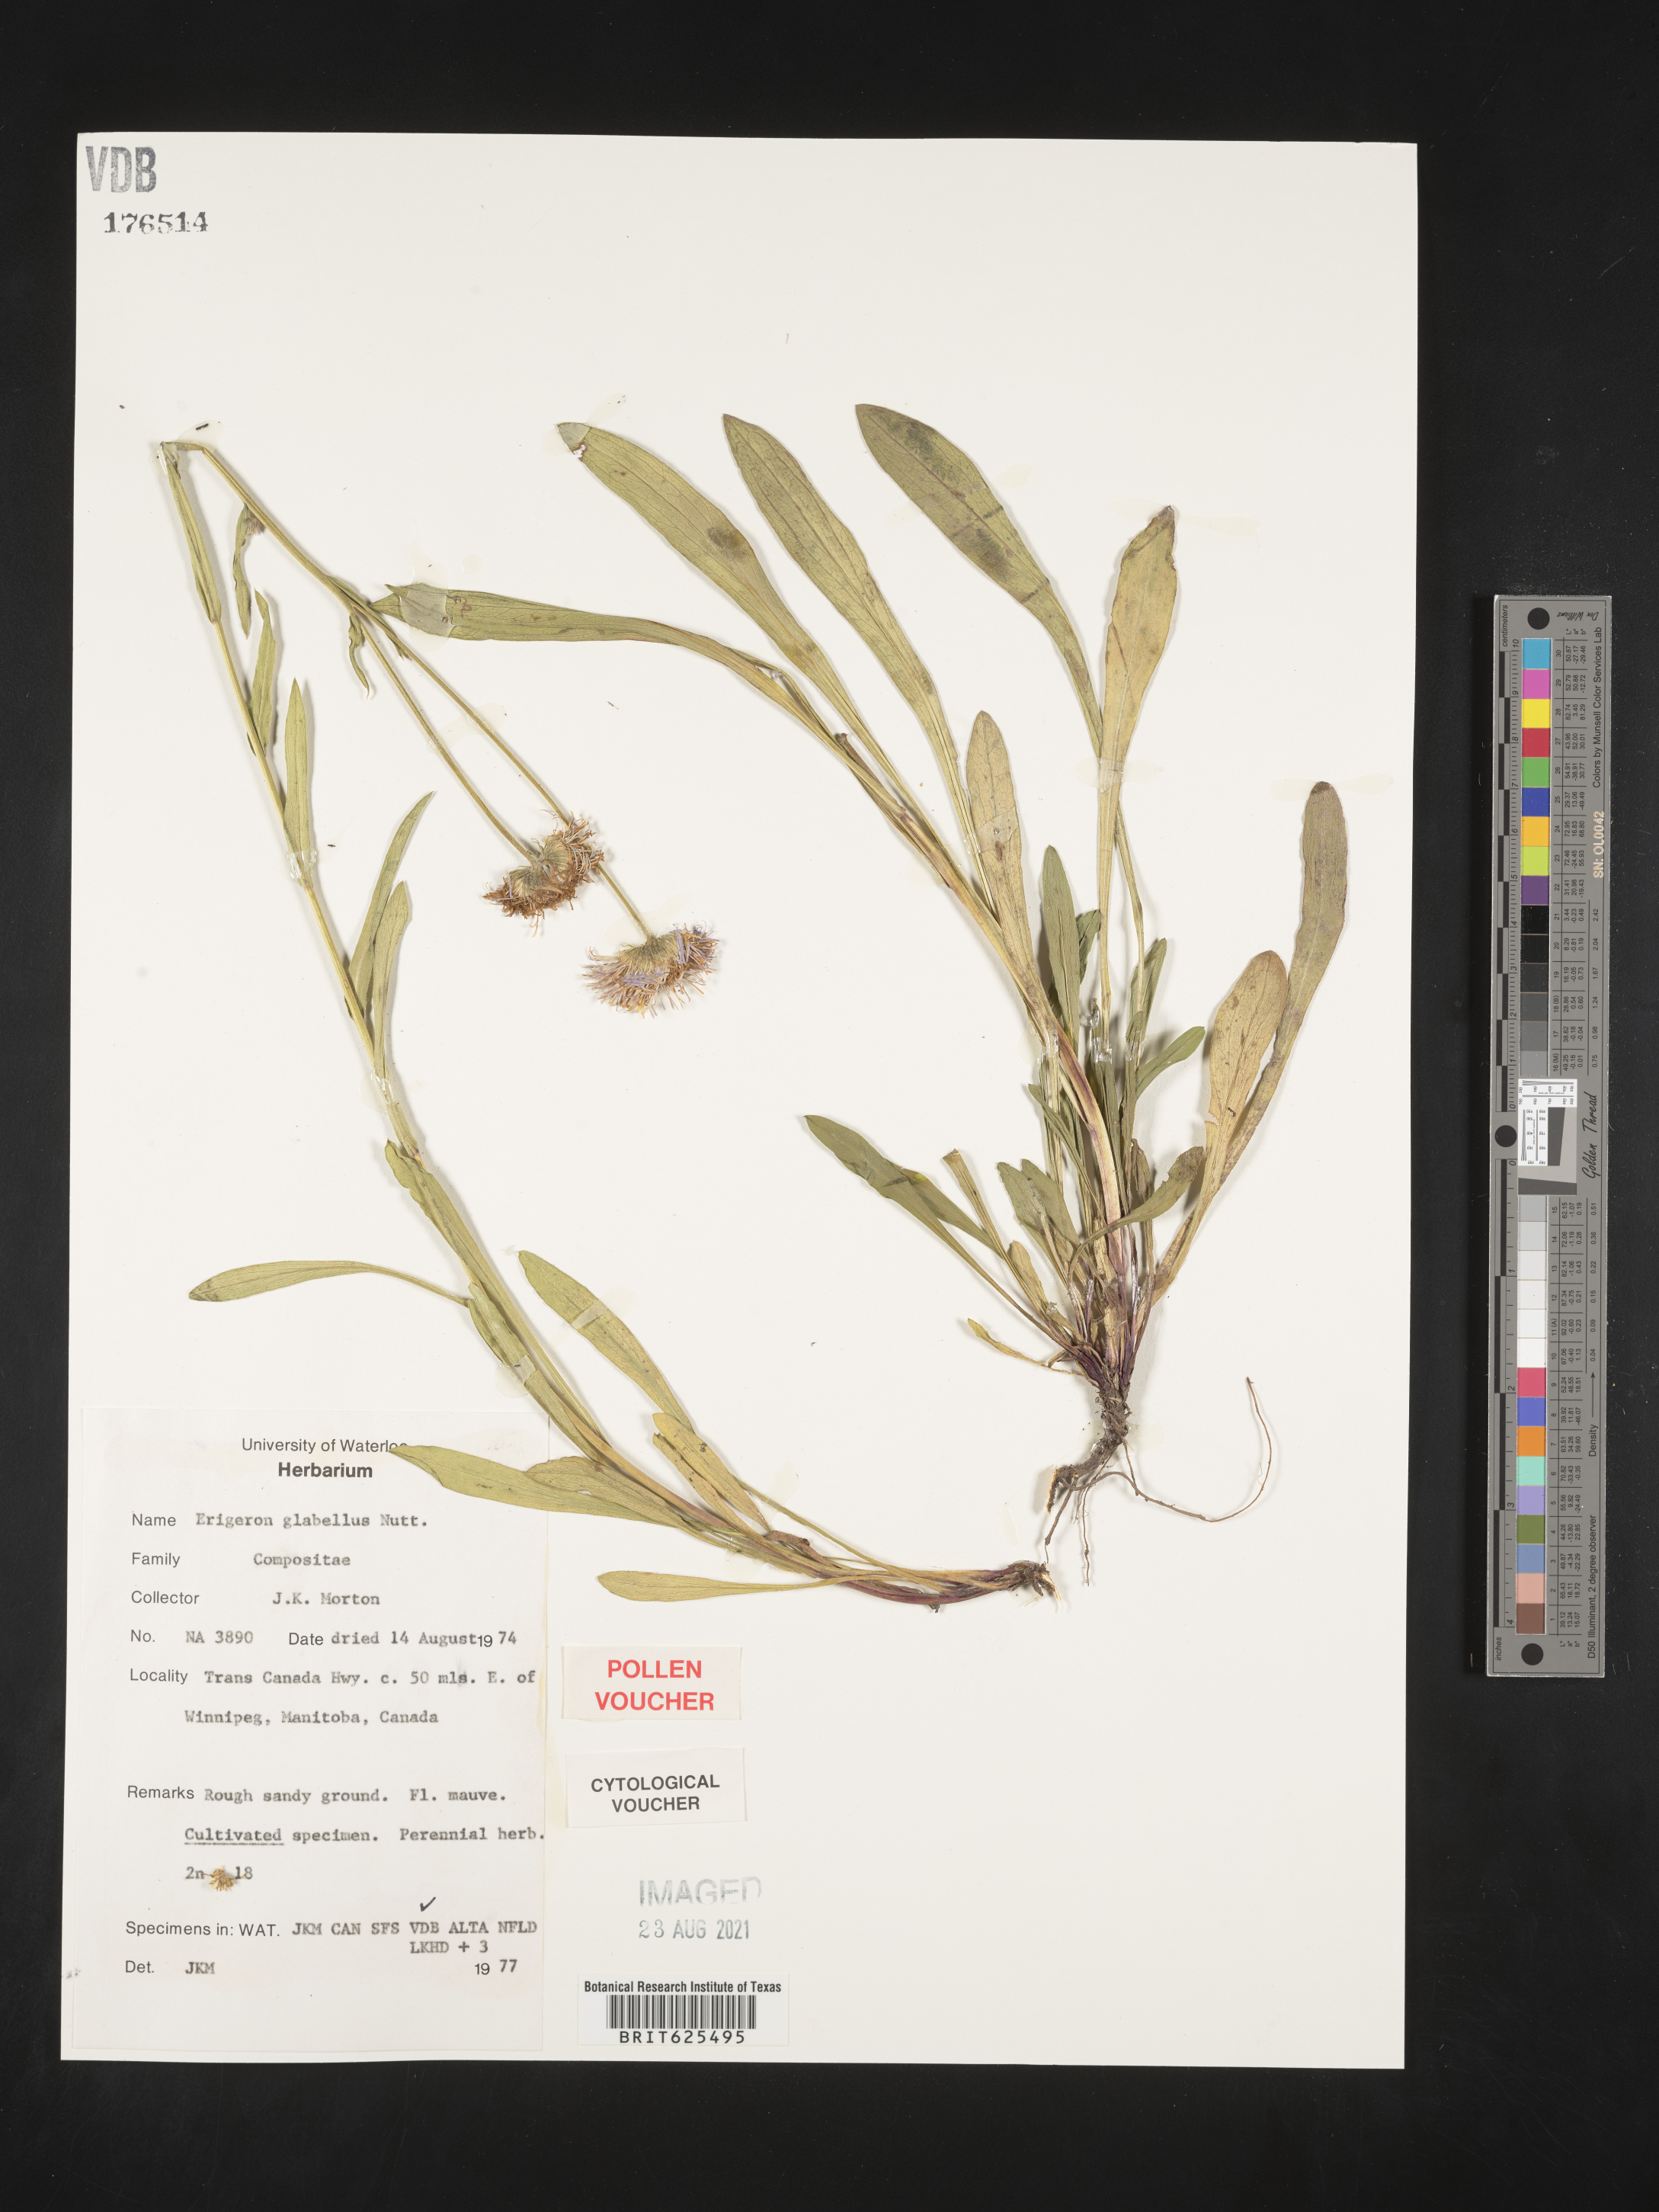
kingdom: Plantae
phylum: Tracheophyta
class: Magnoliopsida
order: Asterales
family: Asteraceae
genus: Erigeron
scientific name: Erigeron glabellus
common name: Smooth fleabane
